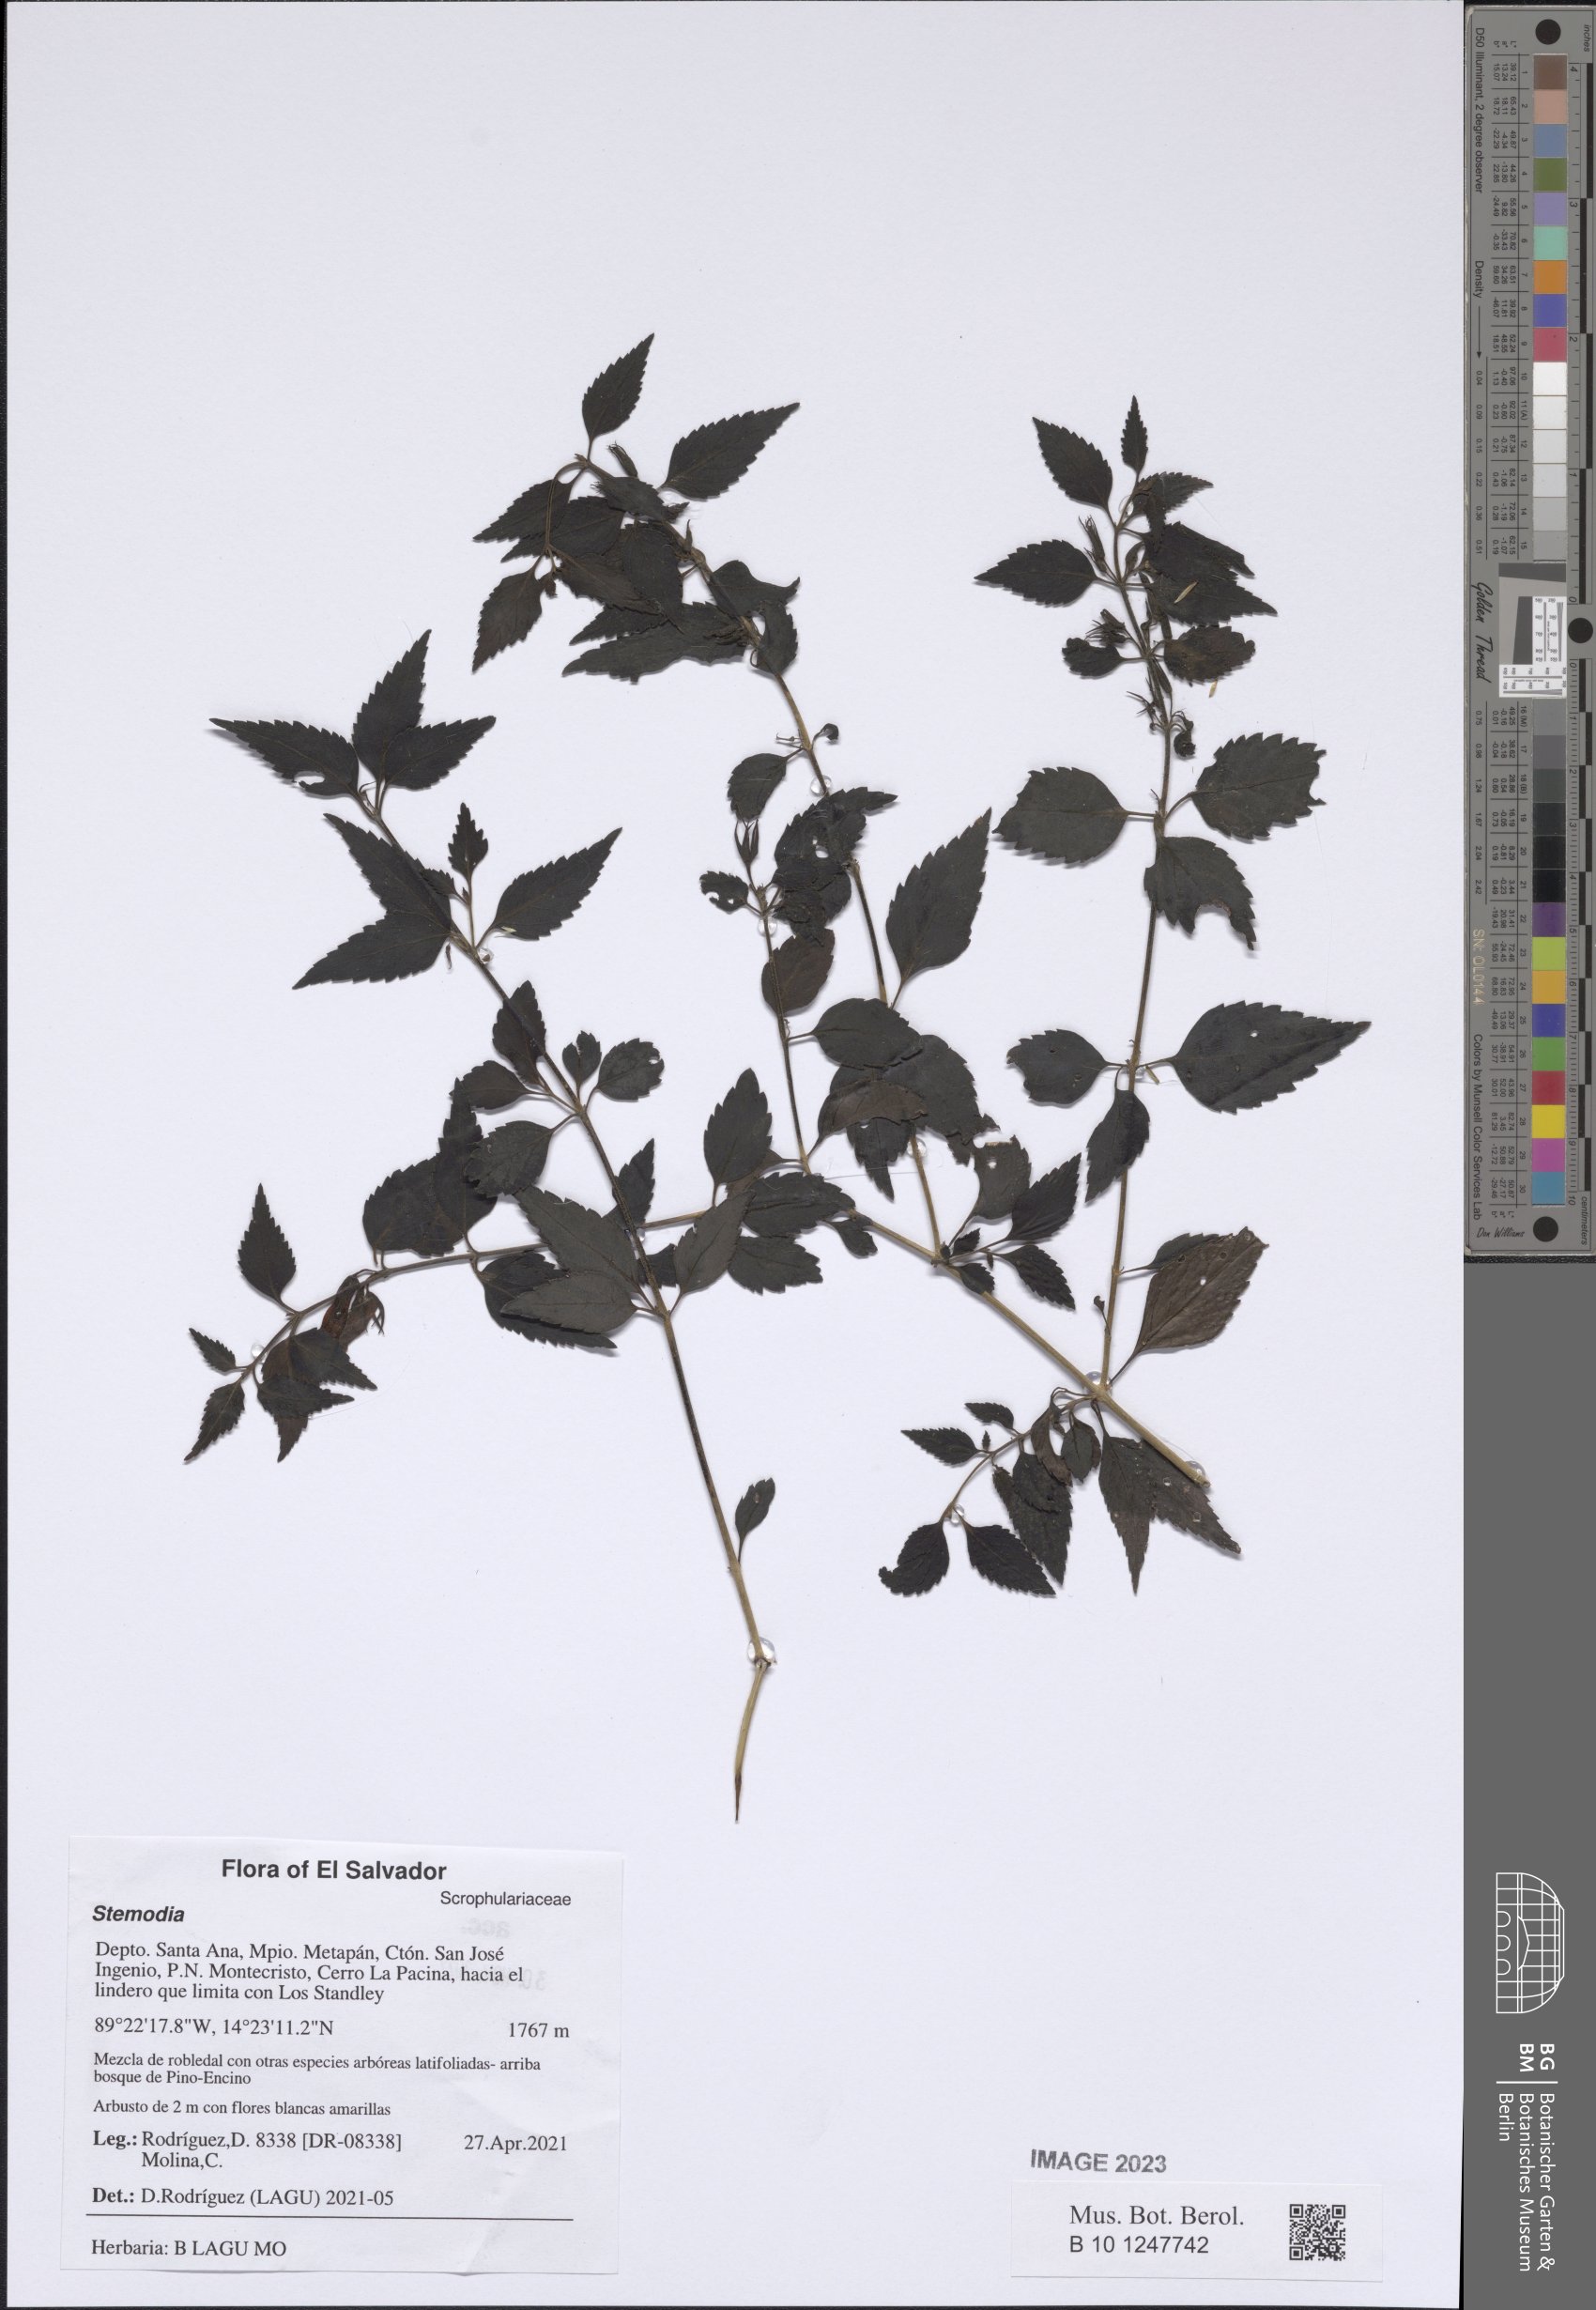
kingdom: Plantae
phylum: Tracheophyta
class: Magnoliopsida
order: Lamiales
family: Plantaginaceae
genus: Stemodia
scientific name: Stemodia
